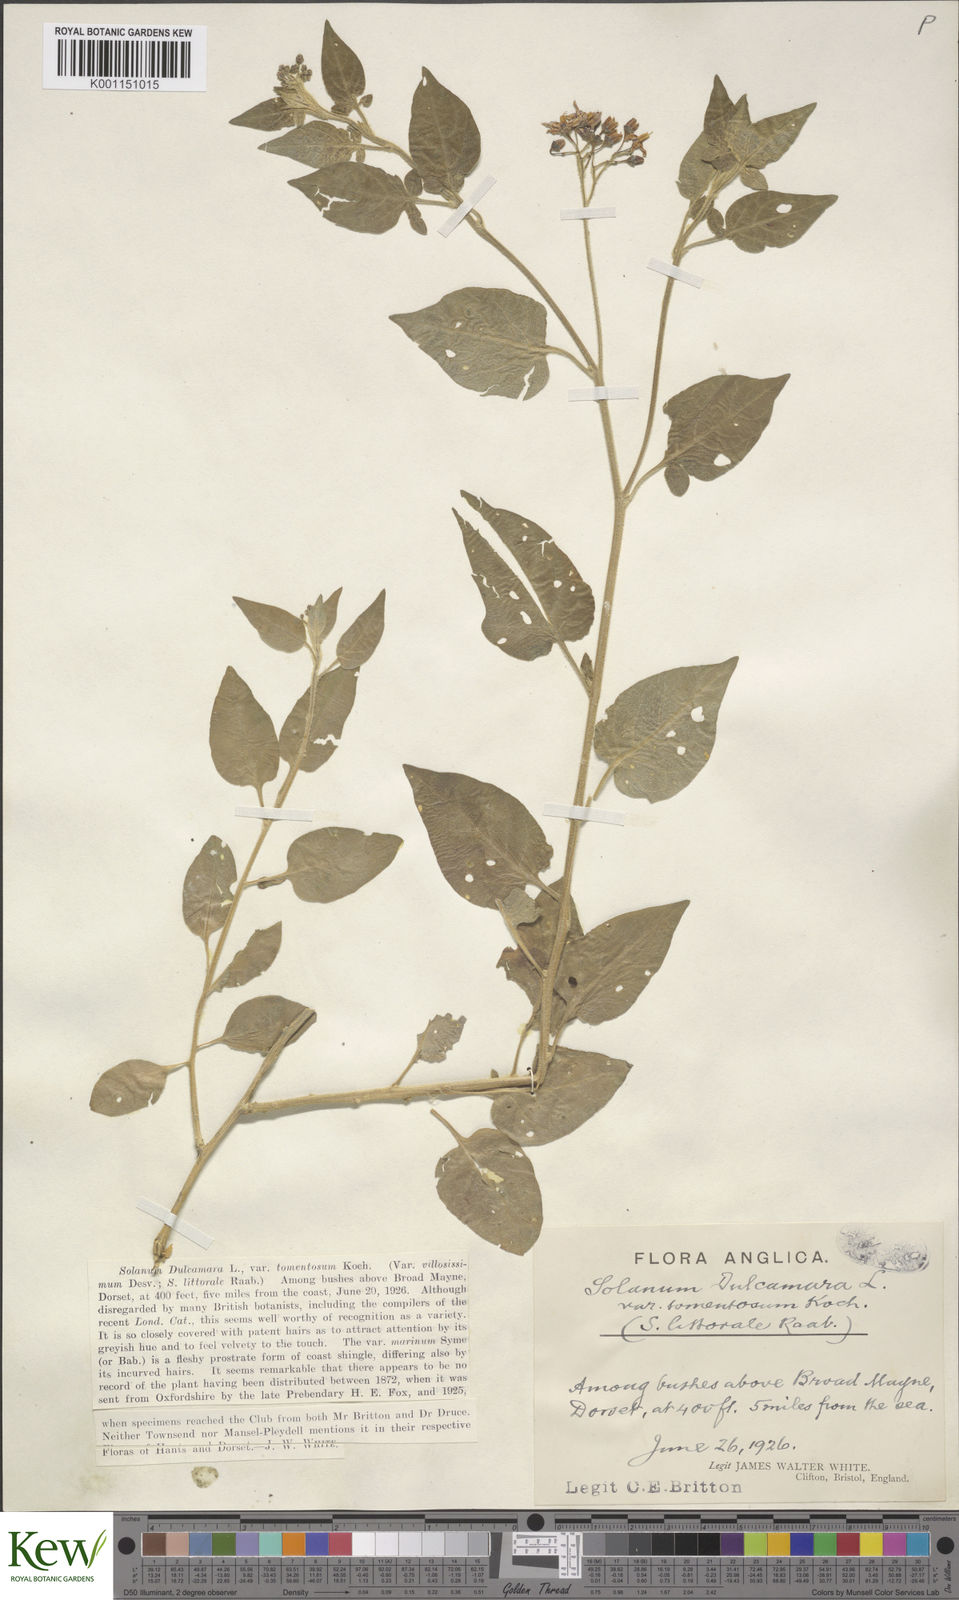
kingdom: Plantae
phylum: Tracheophyta
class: Magnoliopsida
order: Solanales
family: Solanaceae
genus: Solanum
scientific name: Solanum dulcamara
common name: Climbing nightshade
